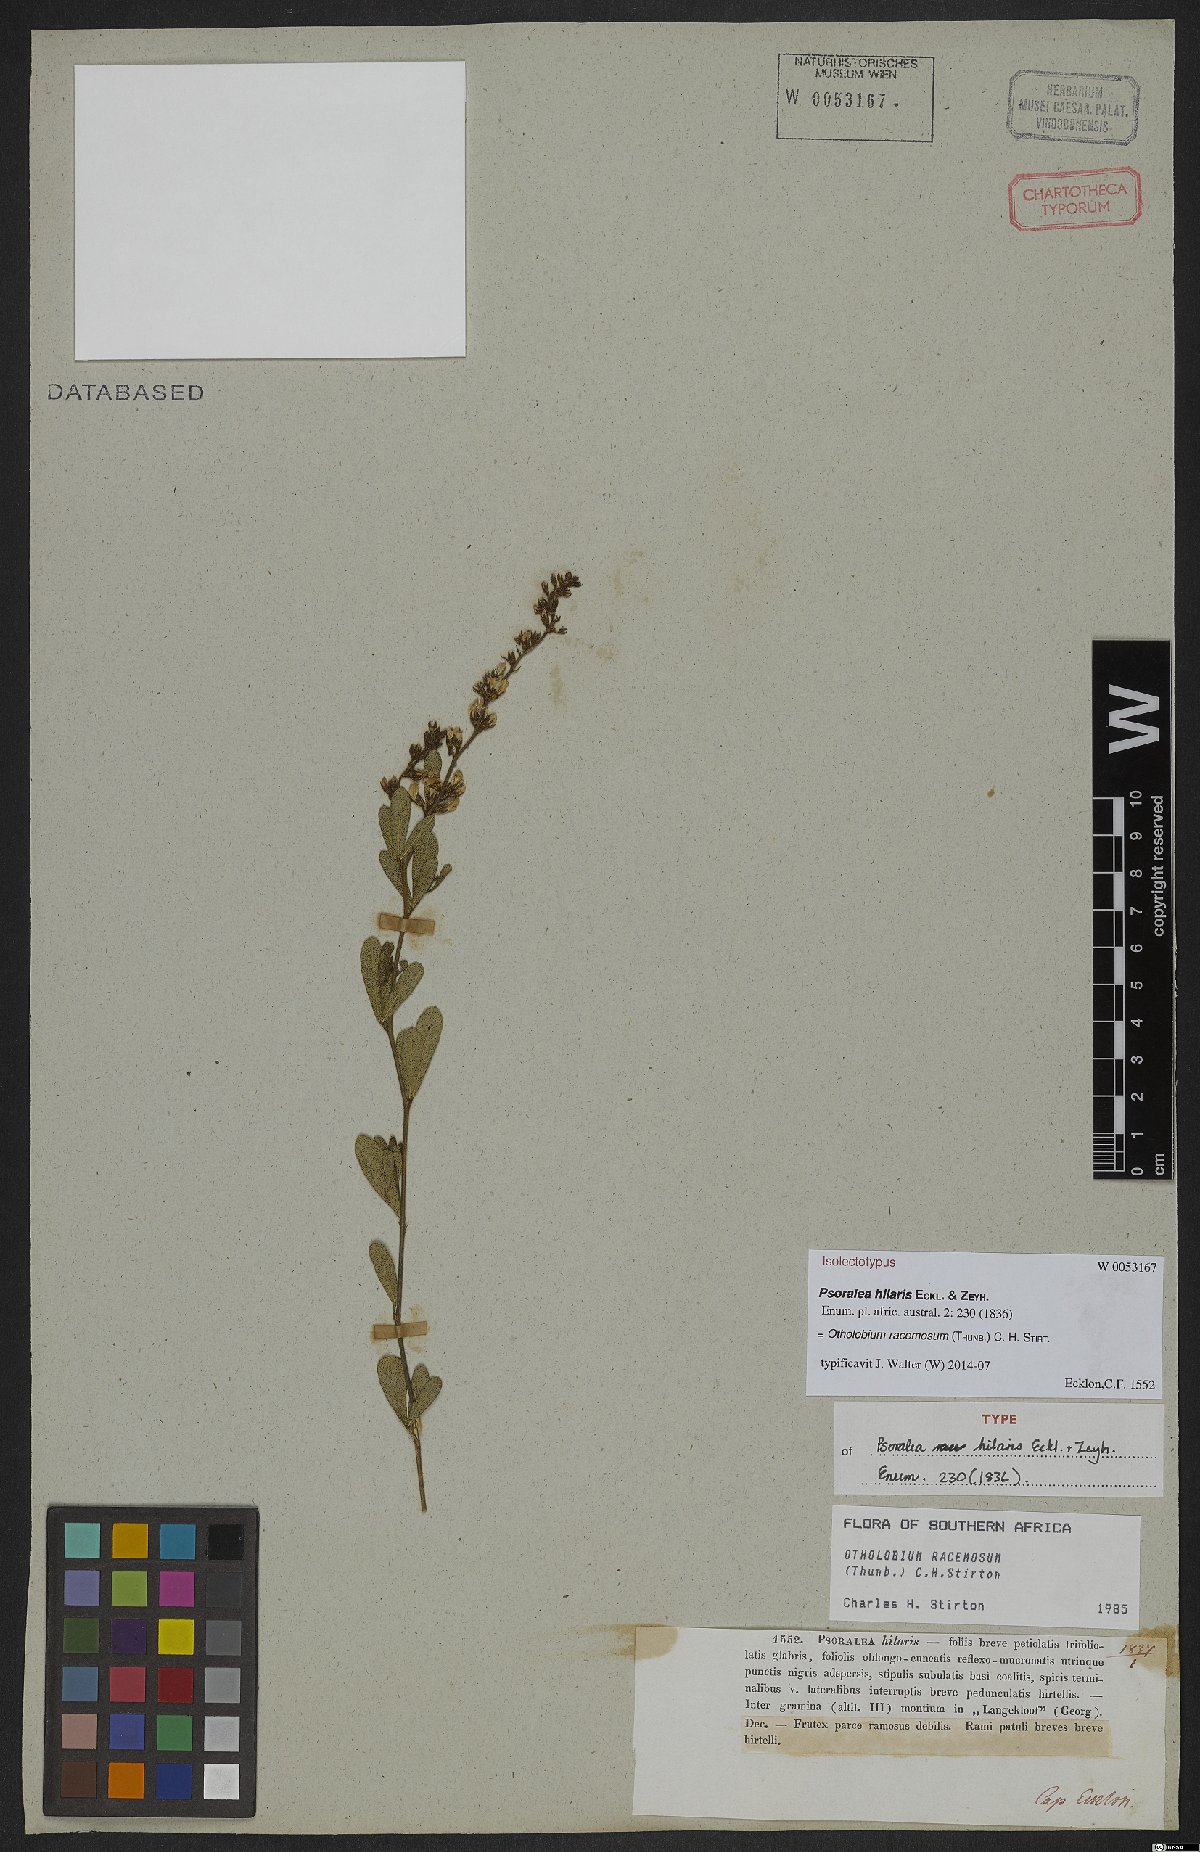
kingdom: Plantae
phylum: Tracheophyta
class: Magnoliopsida
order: Fabales
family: Fabaceae
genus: Psoralea
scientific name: Psoralea racemosa
